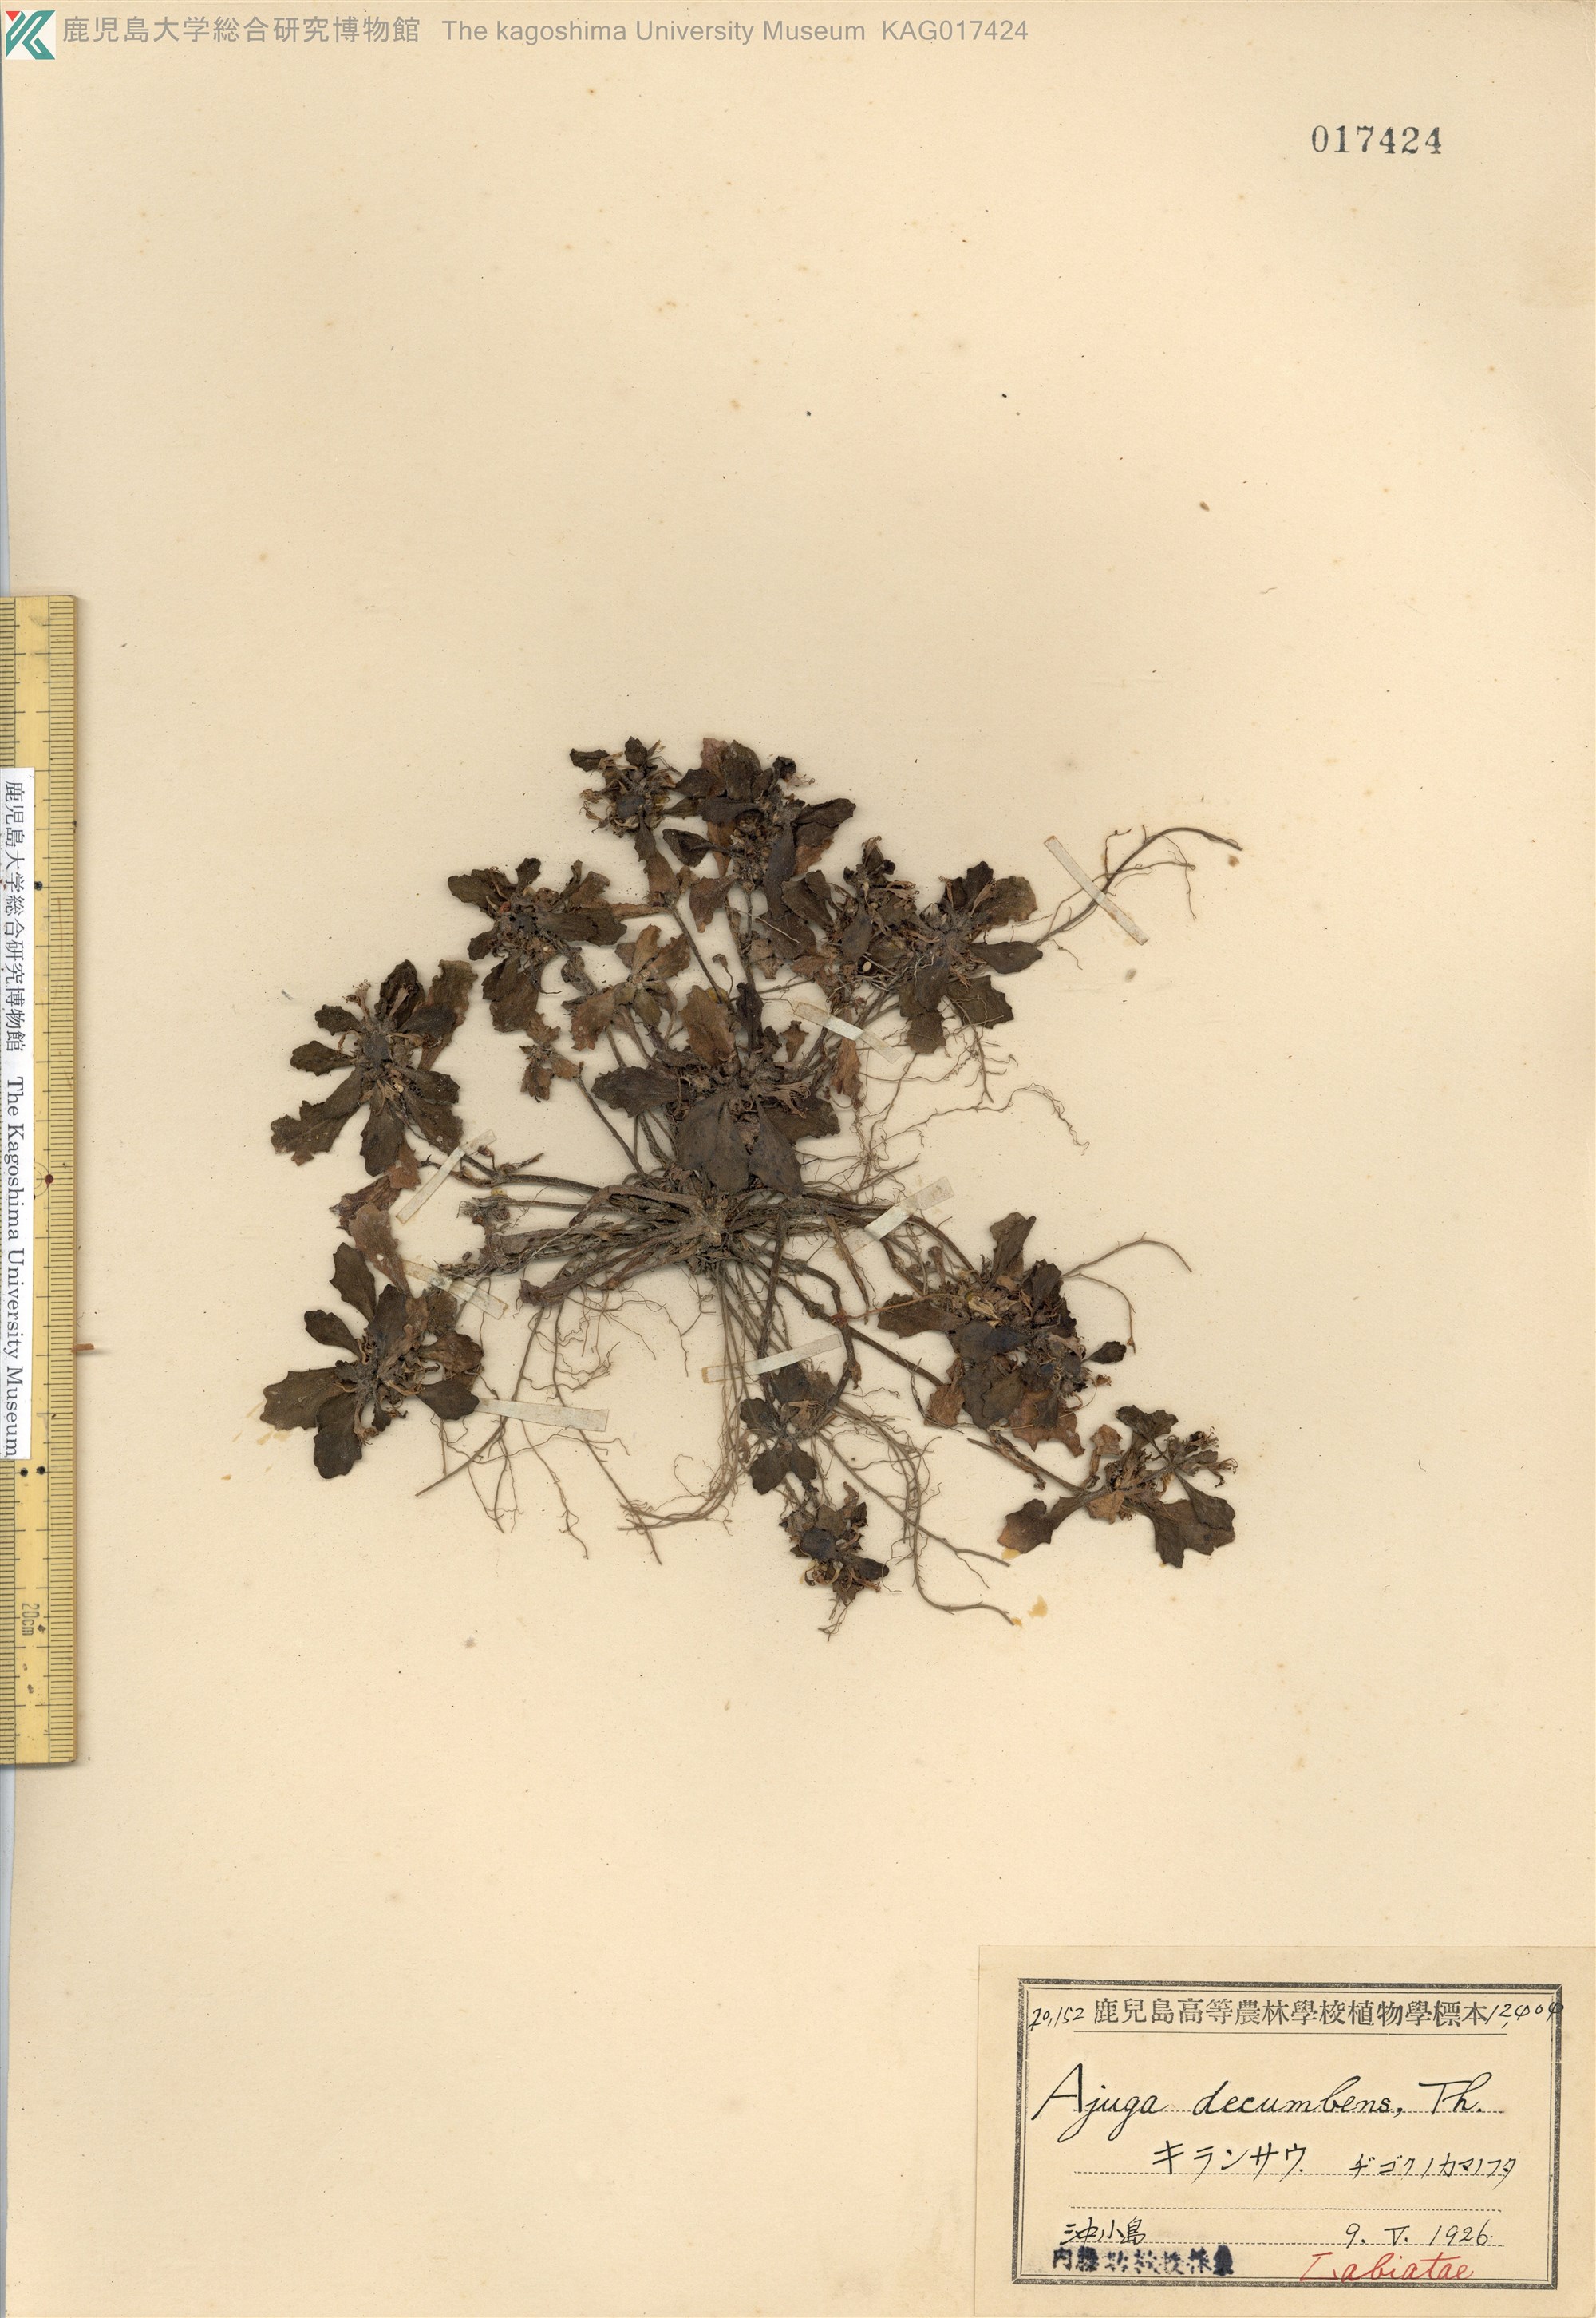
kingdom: Plantae
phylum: Tracheophyta
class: Magnoliopsida
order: Lamiales
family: Lamiaceae
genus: Ajuga
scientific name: Ajuga decumbens
